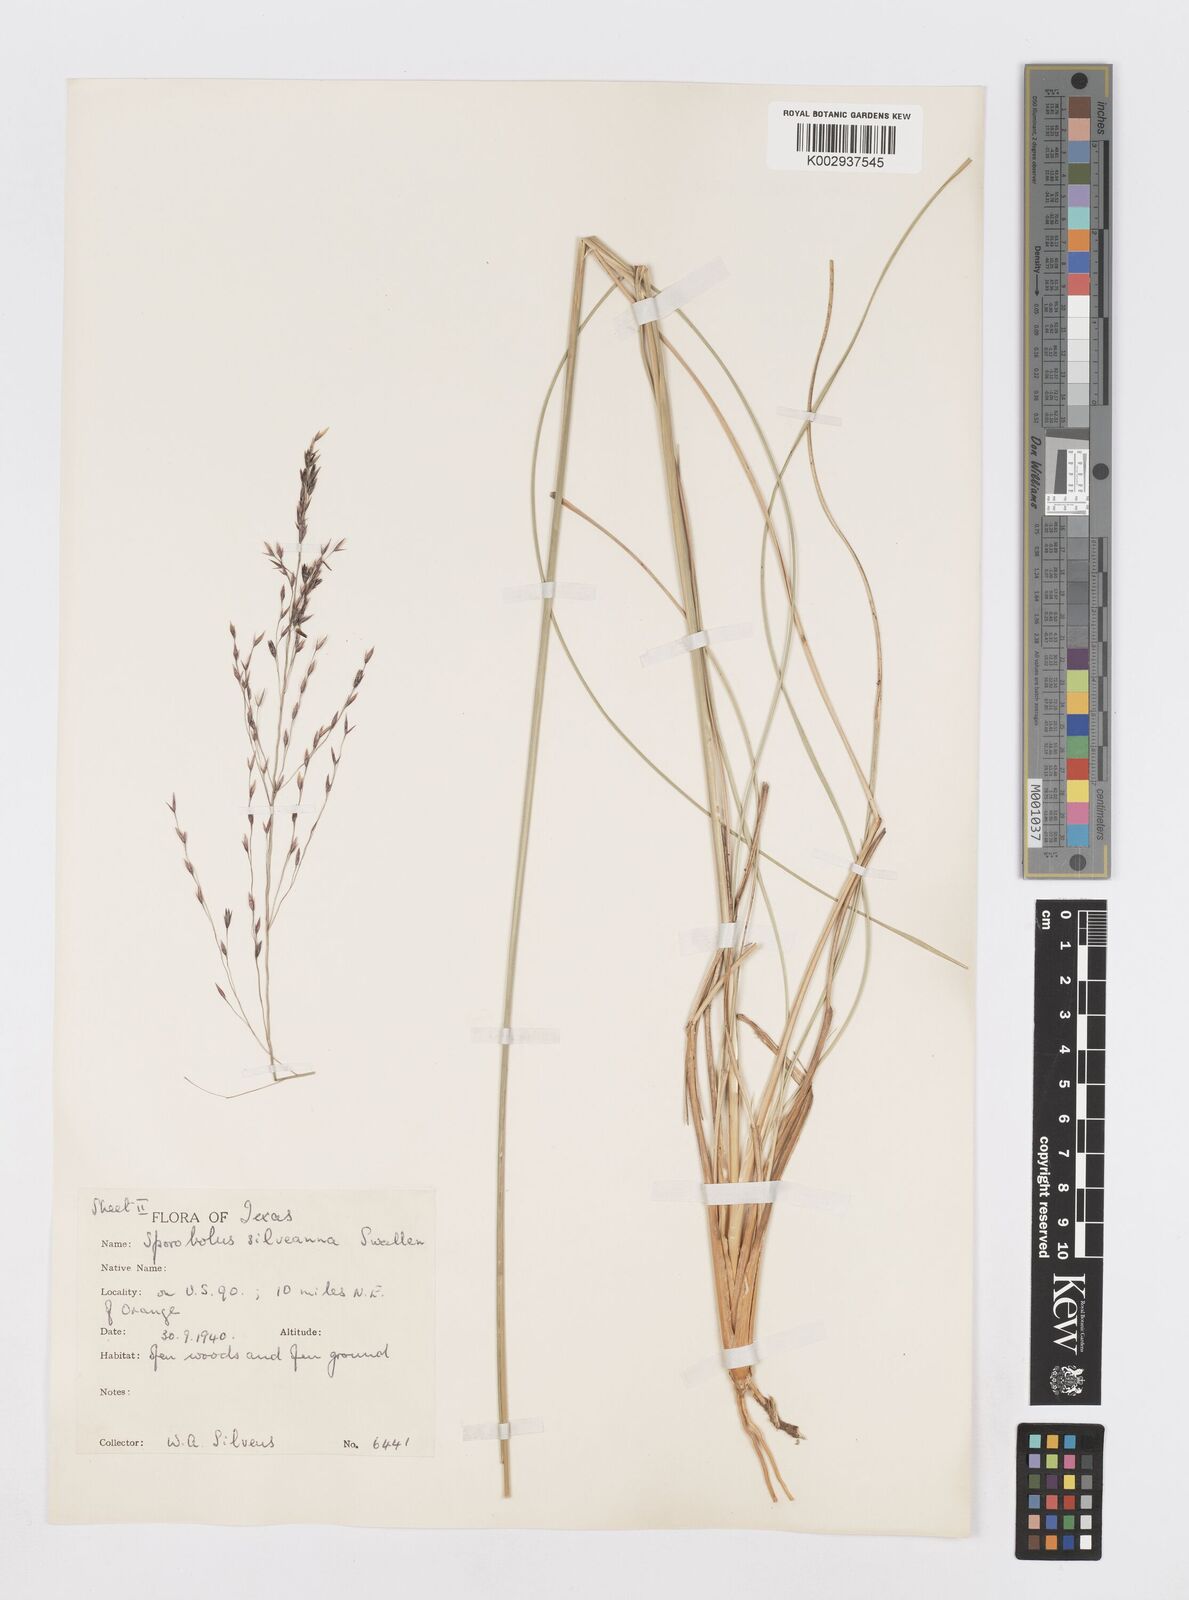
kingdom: Plantae
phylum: Tracheophyta
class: Liliopsida
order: Poales
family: Poaceae
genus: Sporobolus
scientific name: Sporobolus silveanus
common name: Silveus's dropseed
